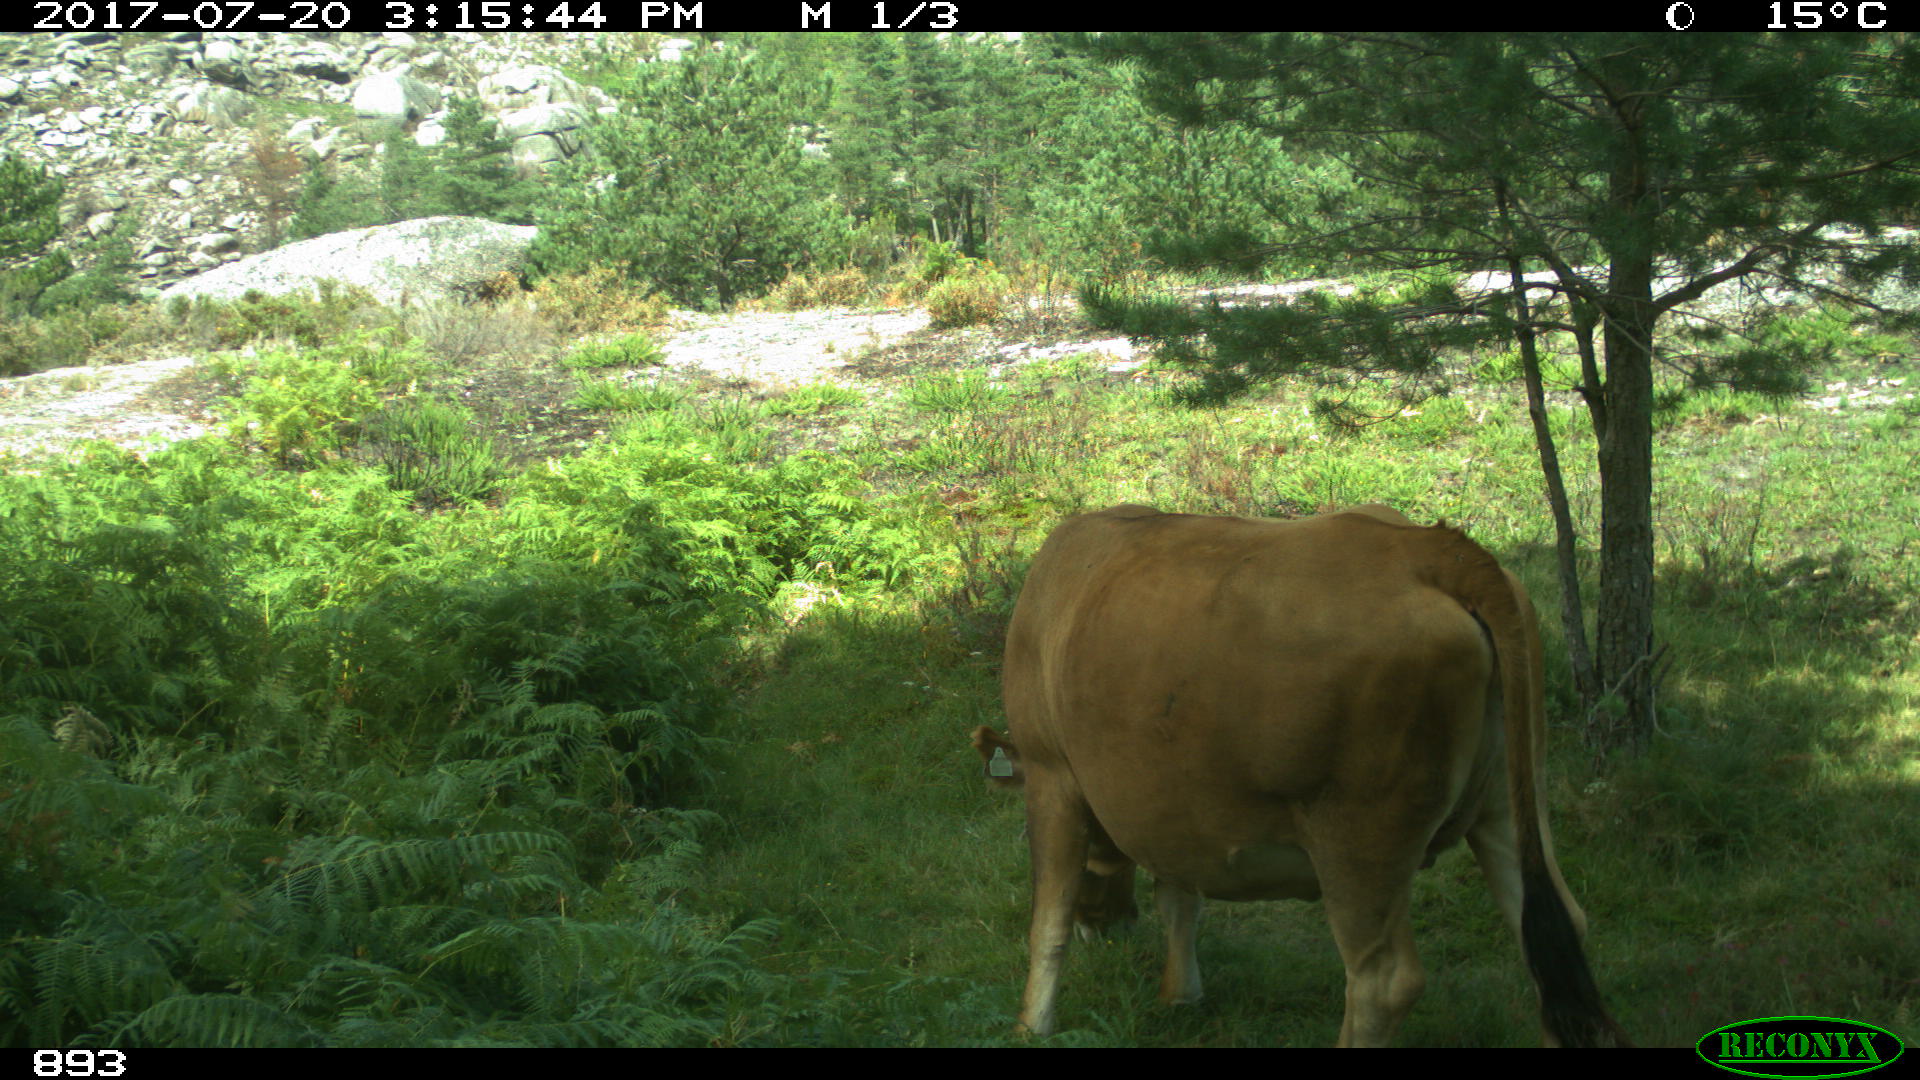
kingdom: Animalia
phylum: Chordata
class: Mammalia
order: Artiodactyla
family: Bovidae
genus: Bos
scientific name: Bos taurus
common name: Domesticated cattle
